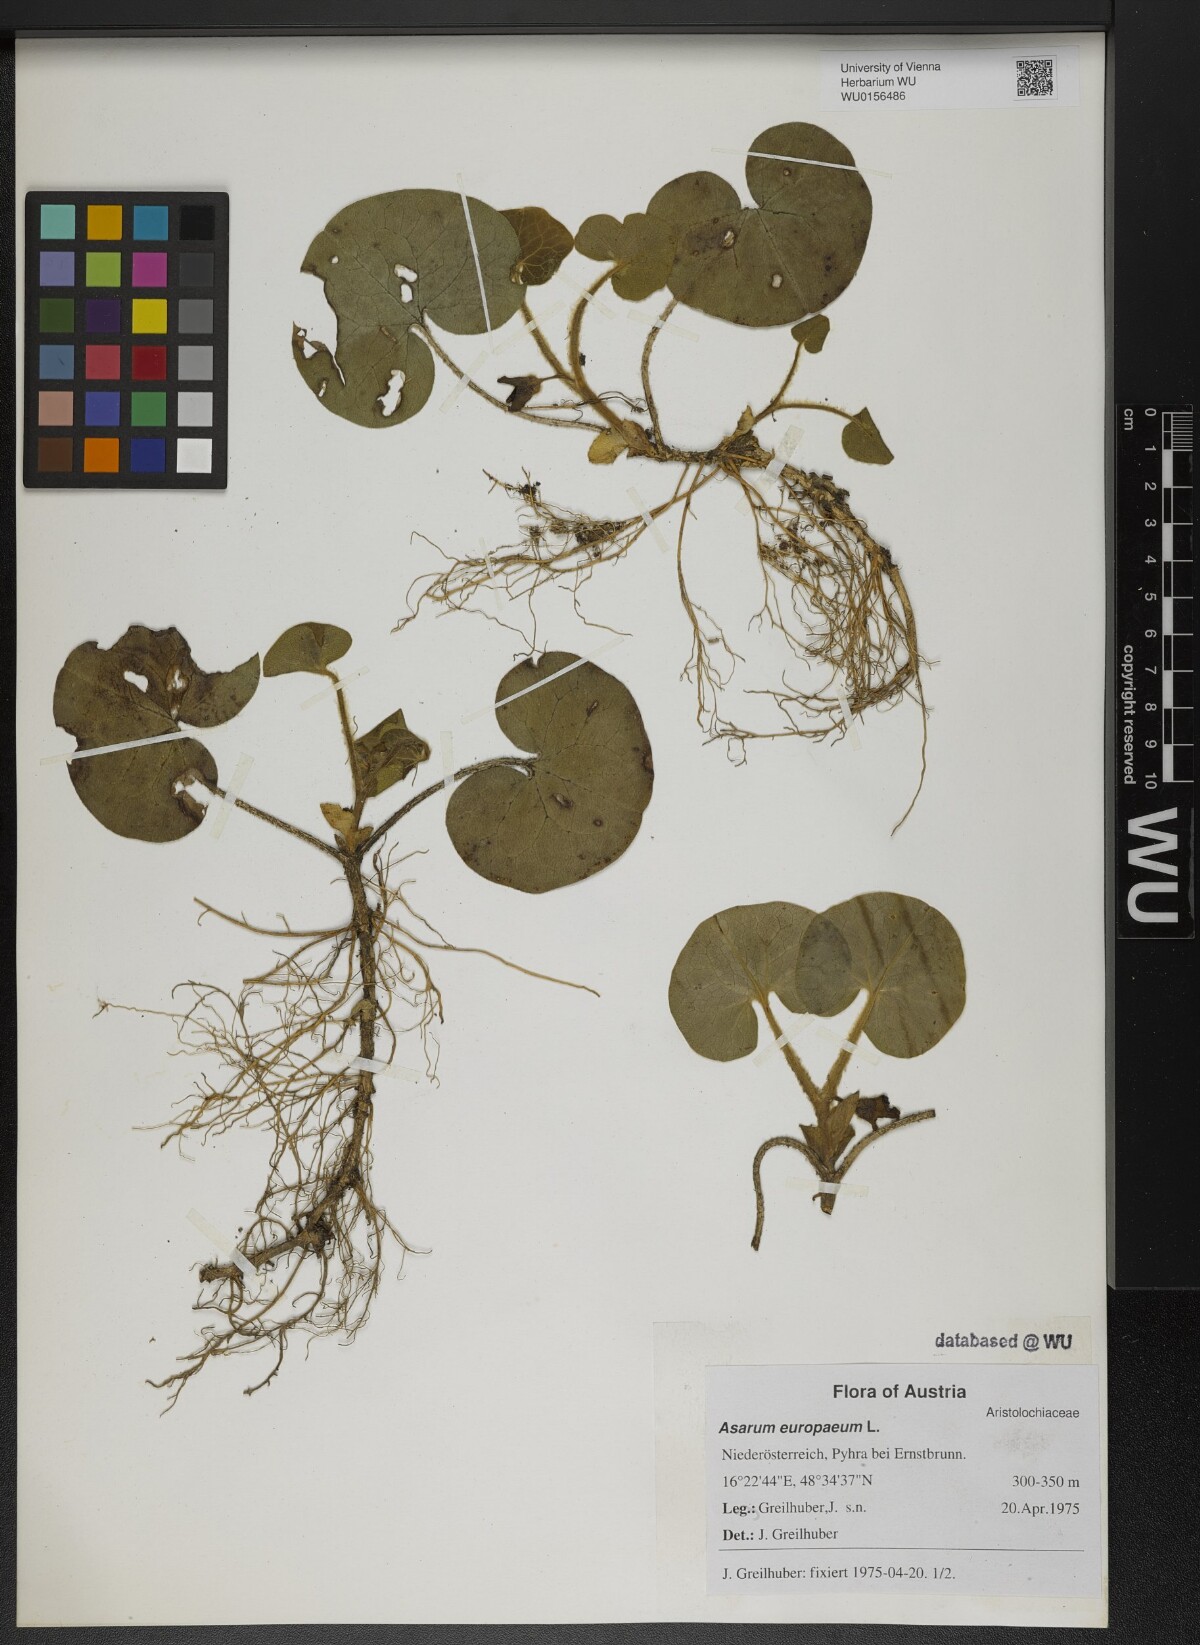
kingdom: Plantae
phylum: Tracheophyta
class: Magnoliopsida
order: Piperales
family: Aristolochiaceae
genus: Asarum
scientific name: Asarum europaeum
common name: Asarabacca
